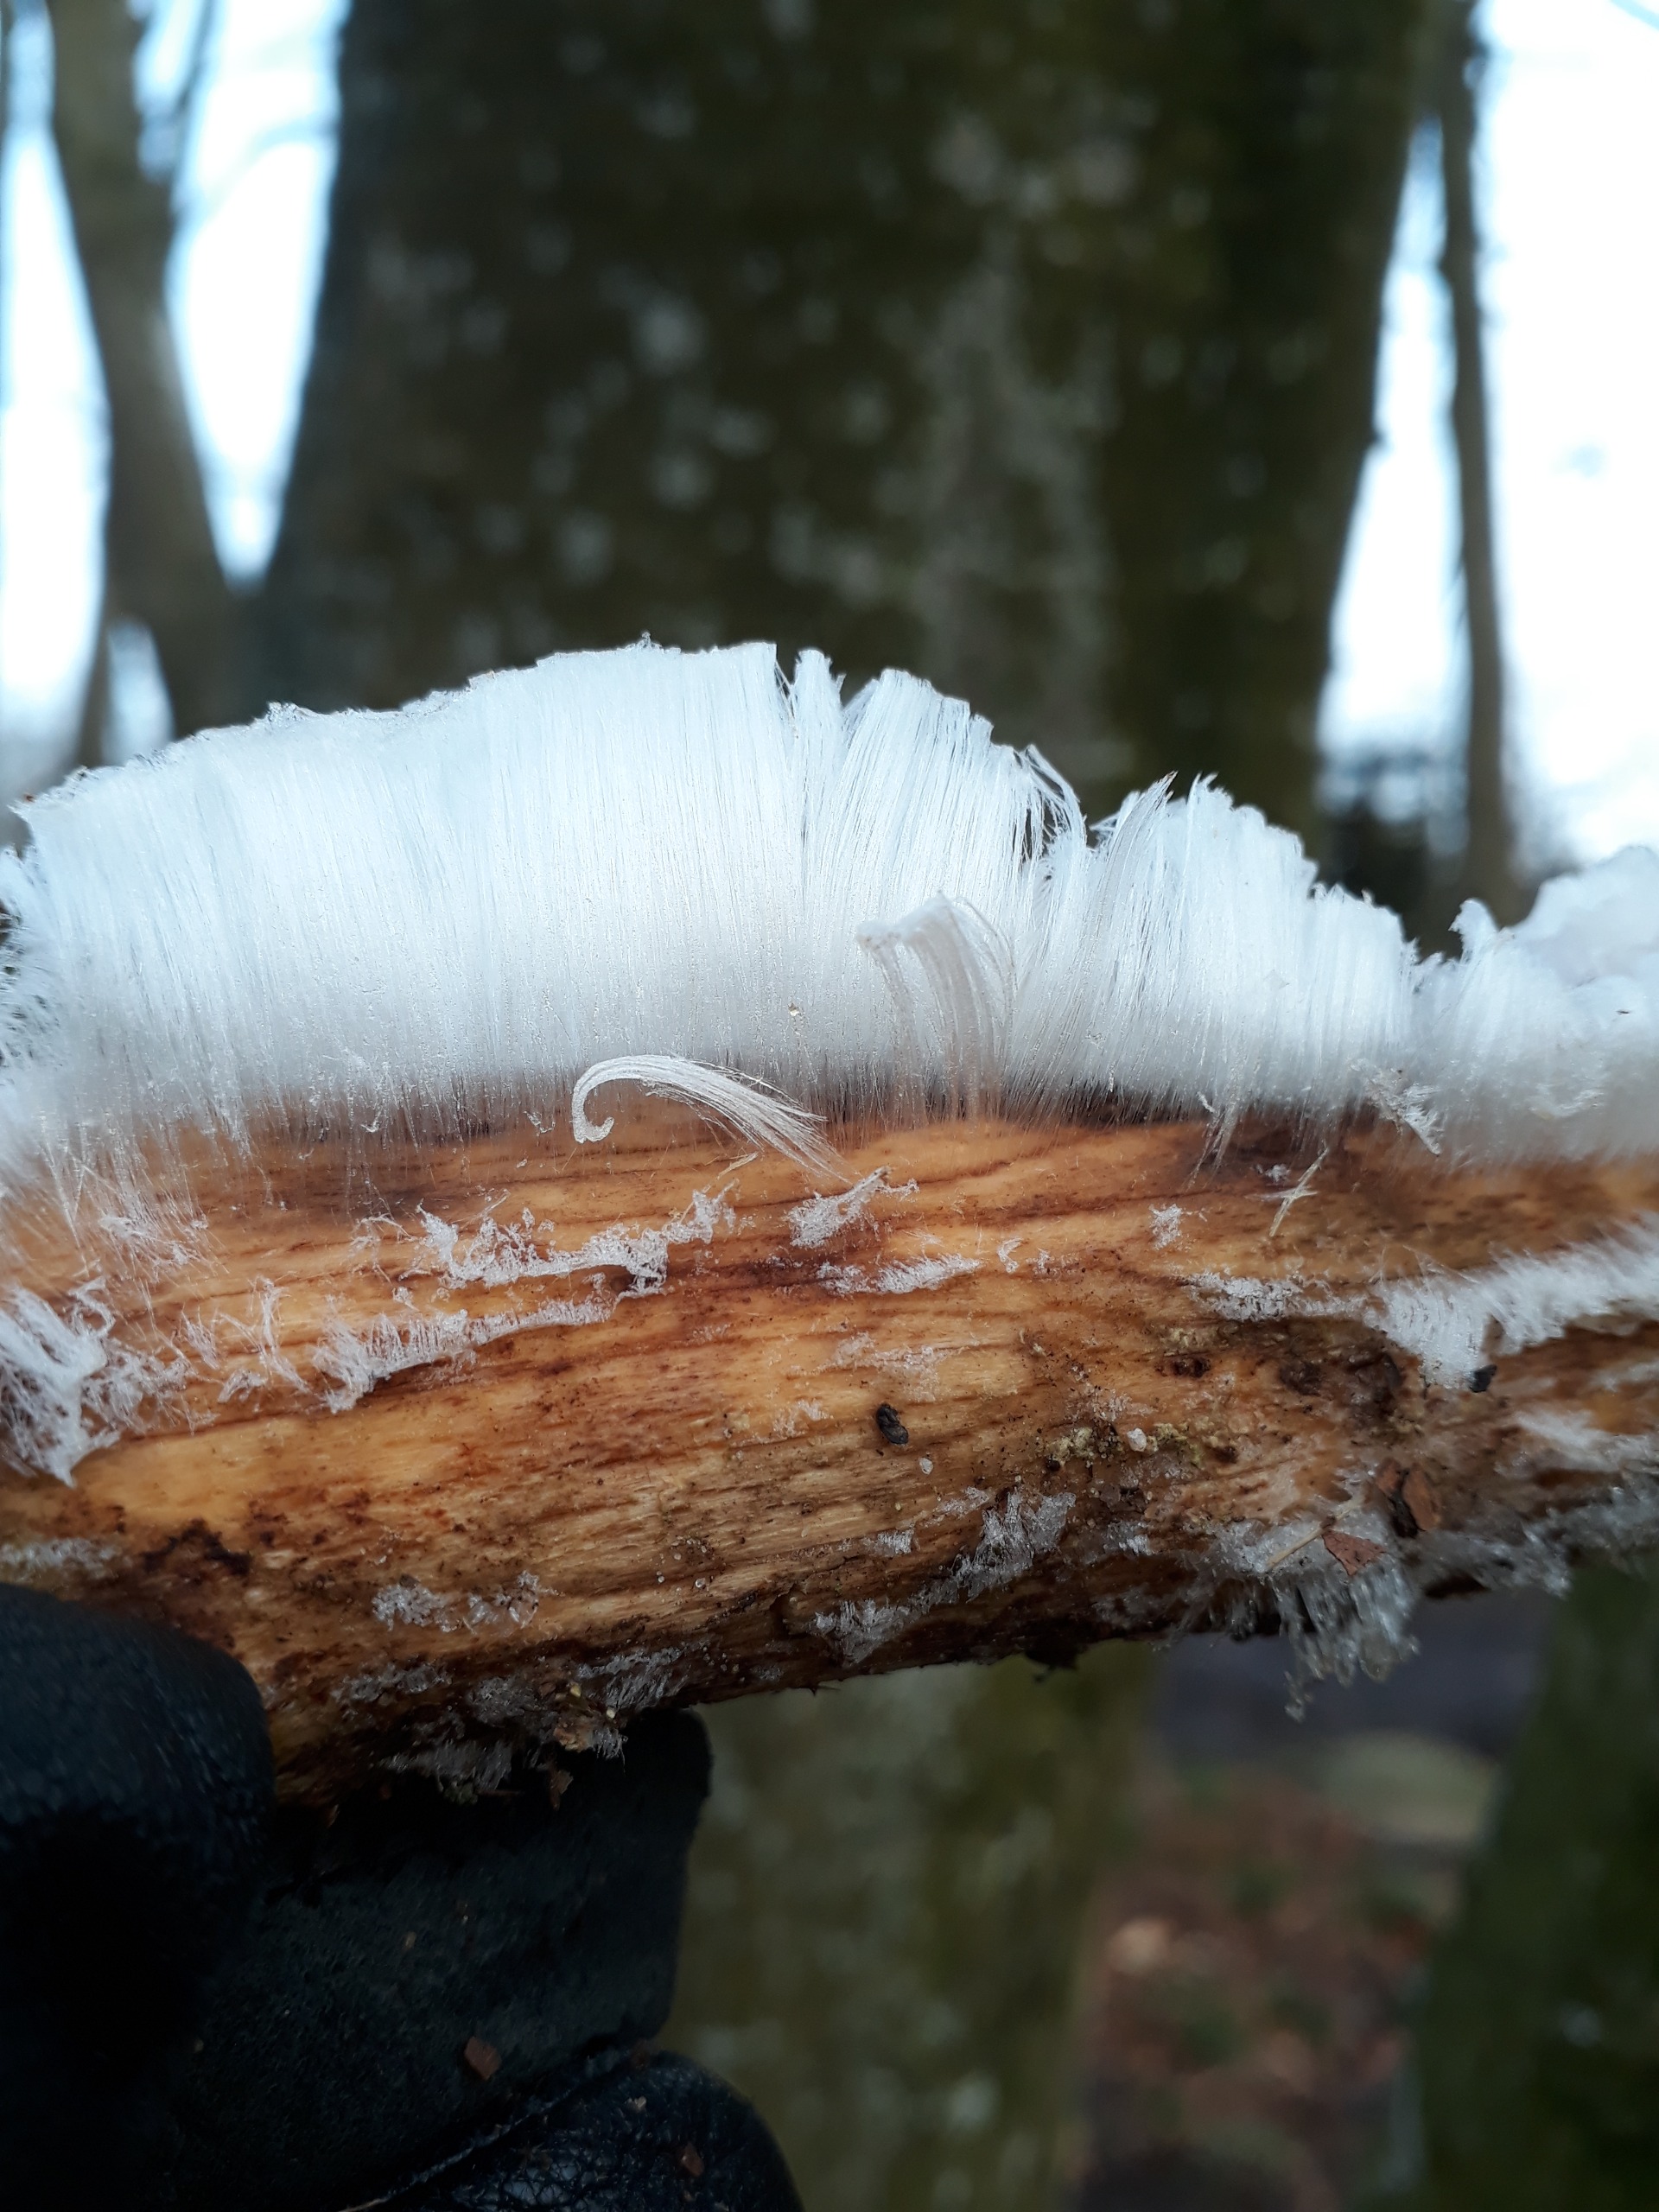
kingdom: Fungi
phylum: Basidiomycota
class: Tremellomycetes
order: Tremellales
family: Exidiaceae
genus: Exidiopsis
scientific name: Exidiopsis effusa
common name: Smuk bævrehinde
